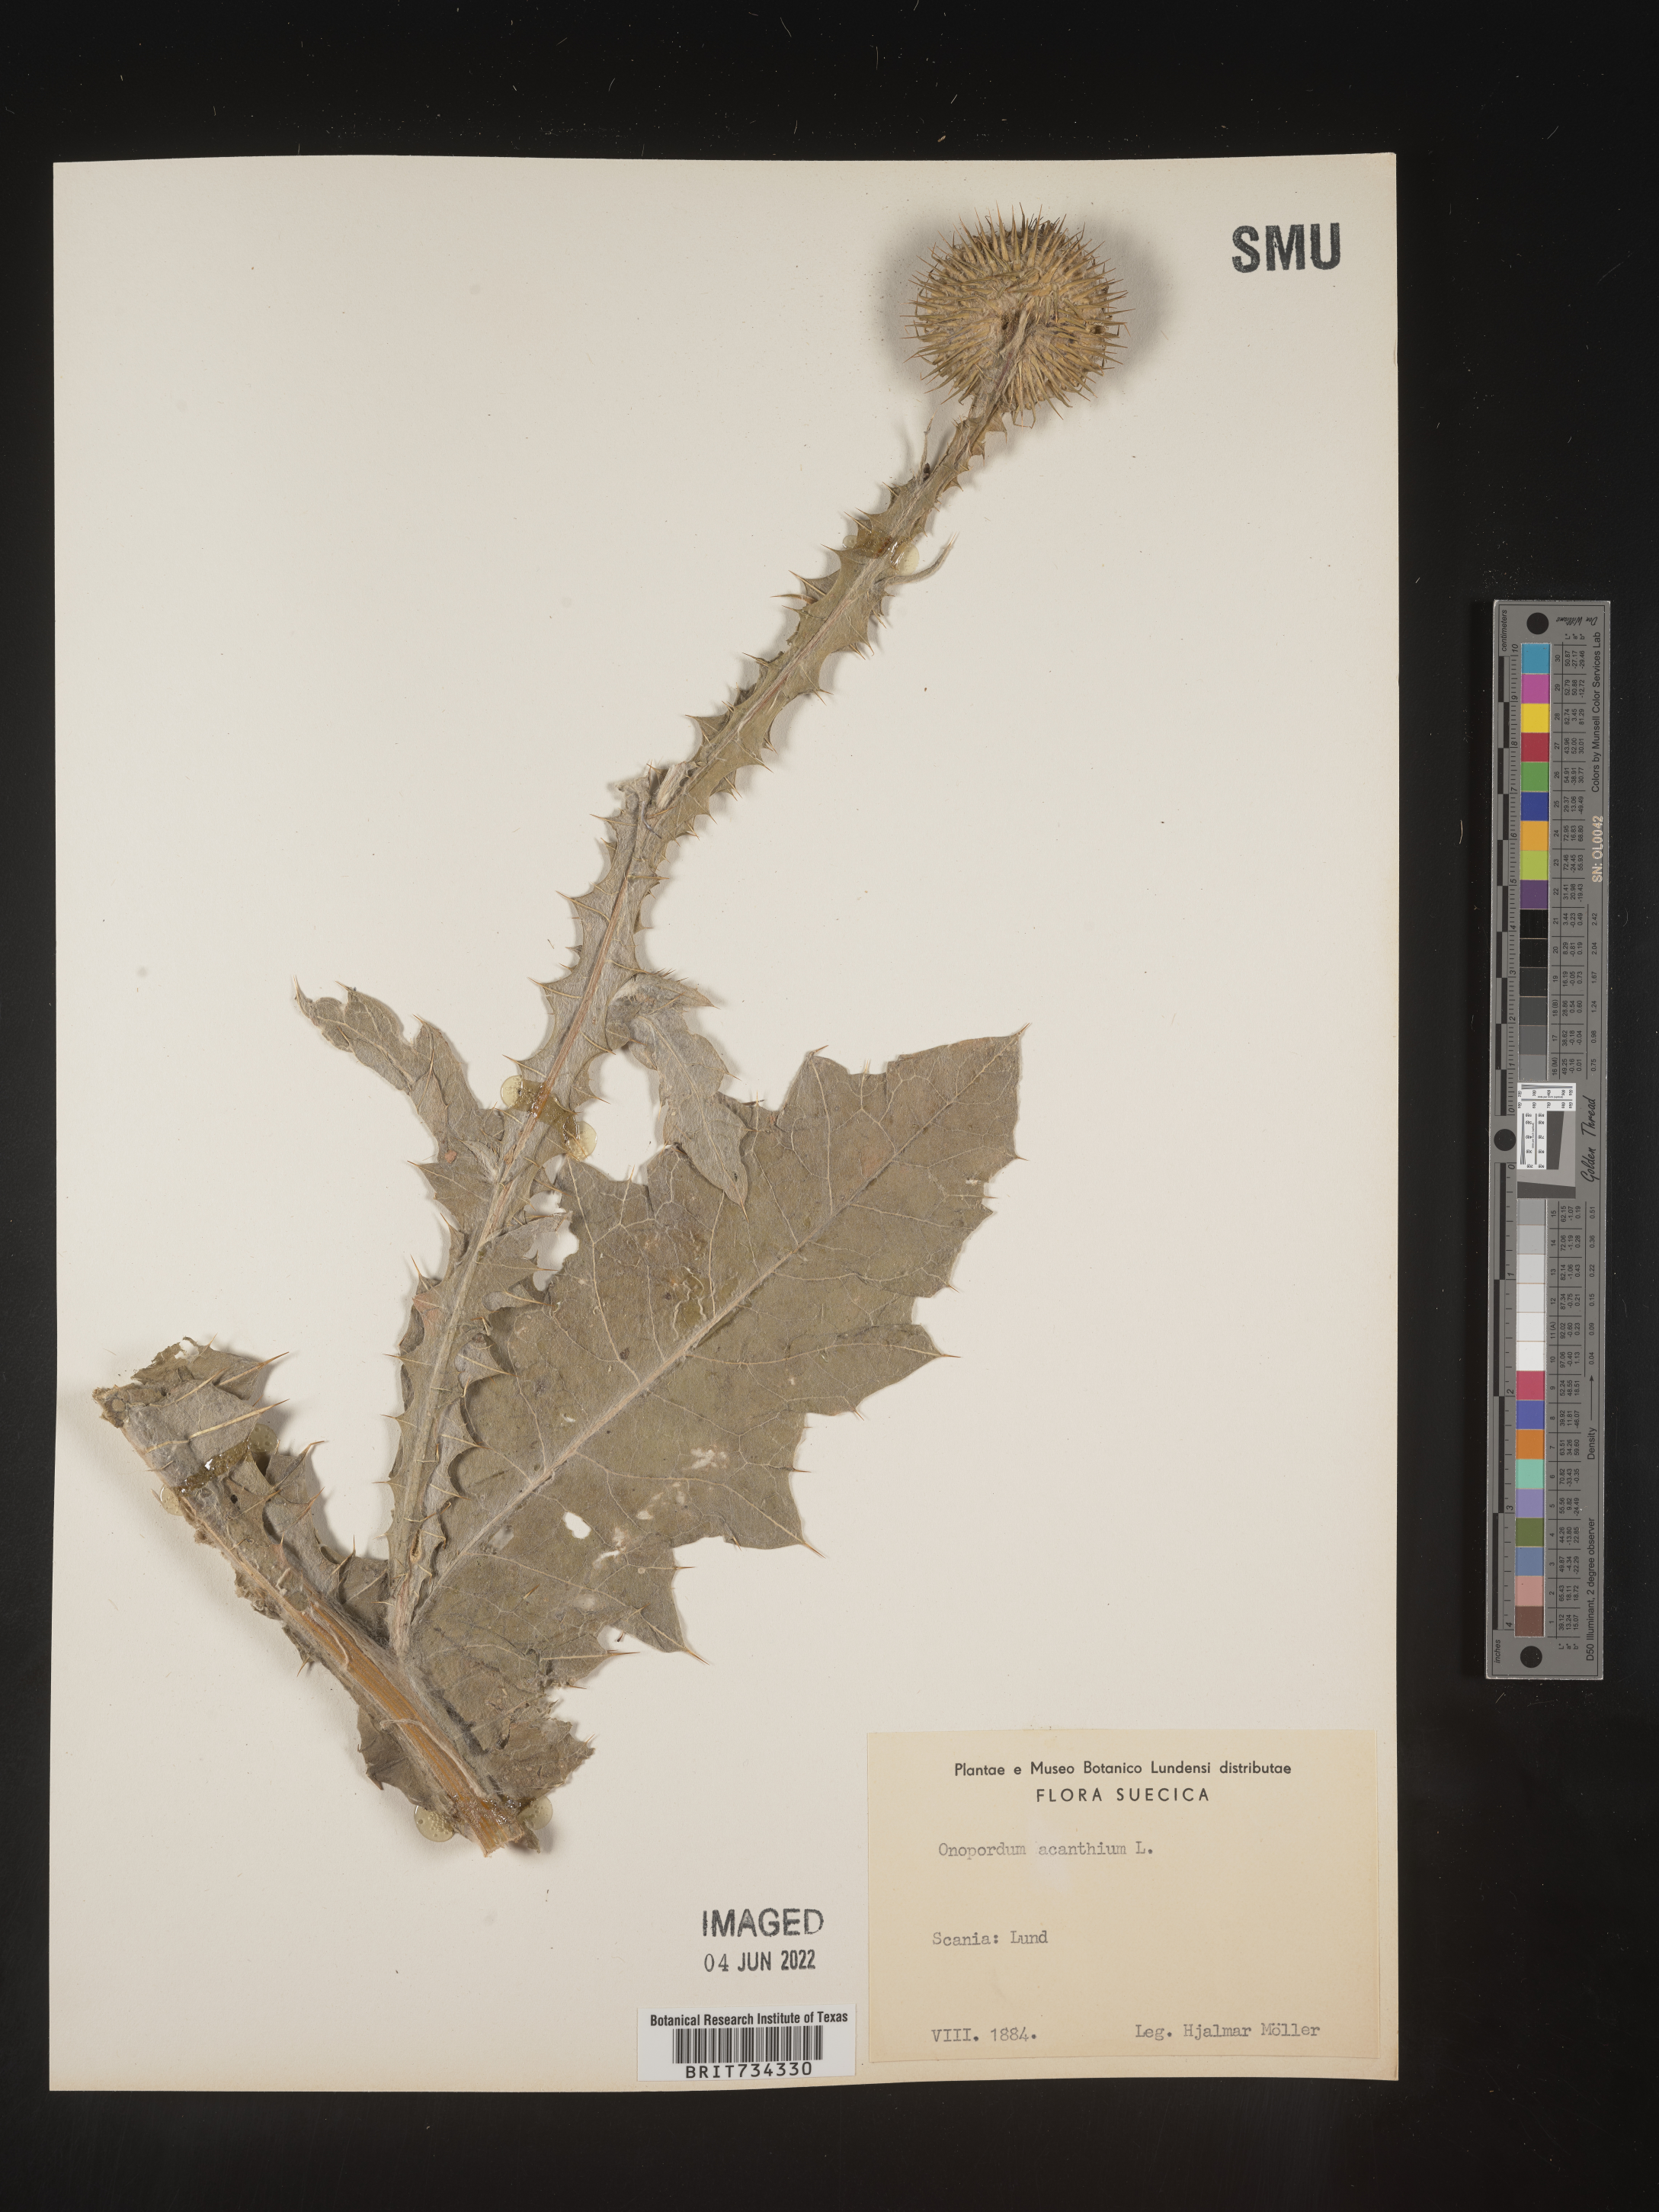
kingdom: Plantae
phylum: Tracheophyta
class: Magnoliopsida
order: Asterales
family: Asteraceae
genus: Onopordum
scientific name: Onopordum
